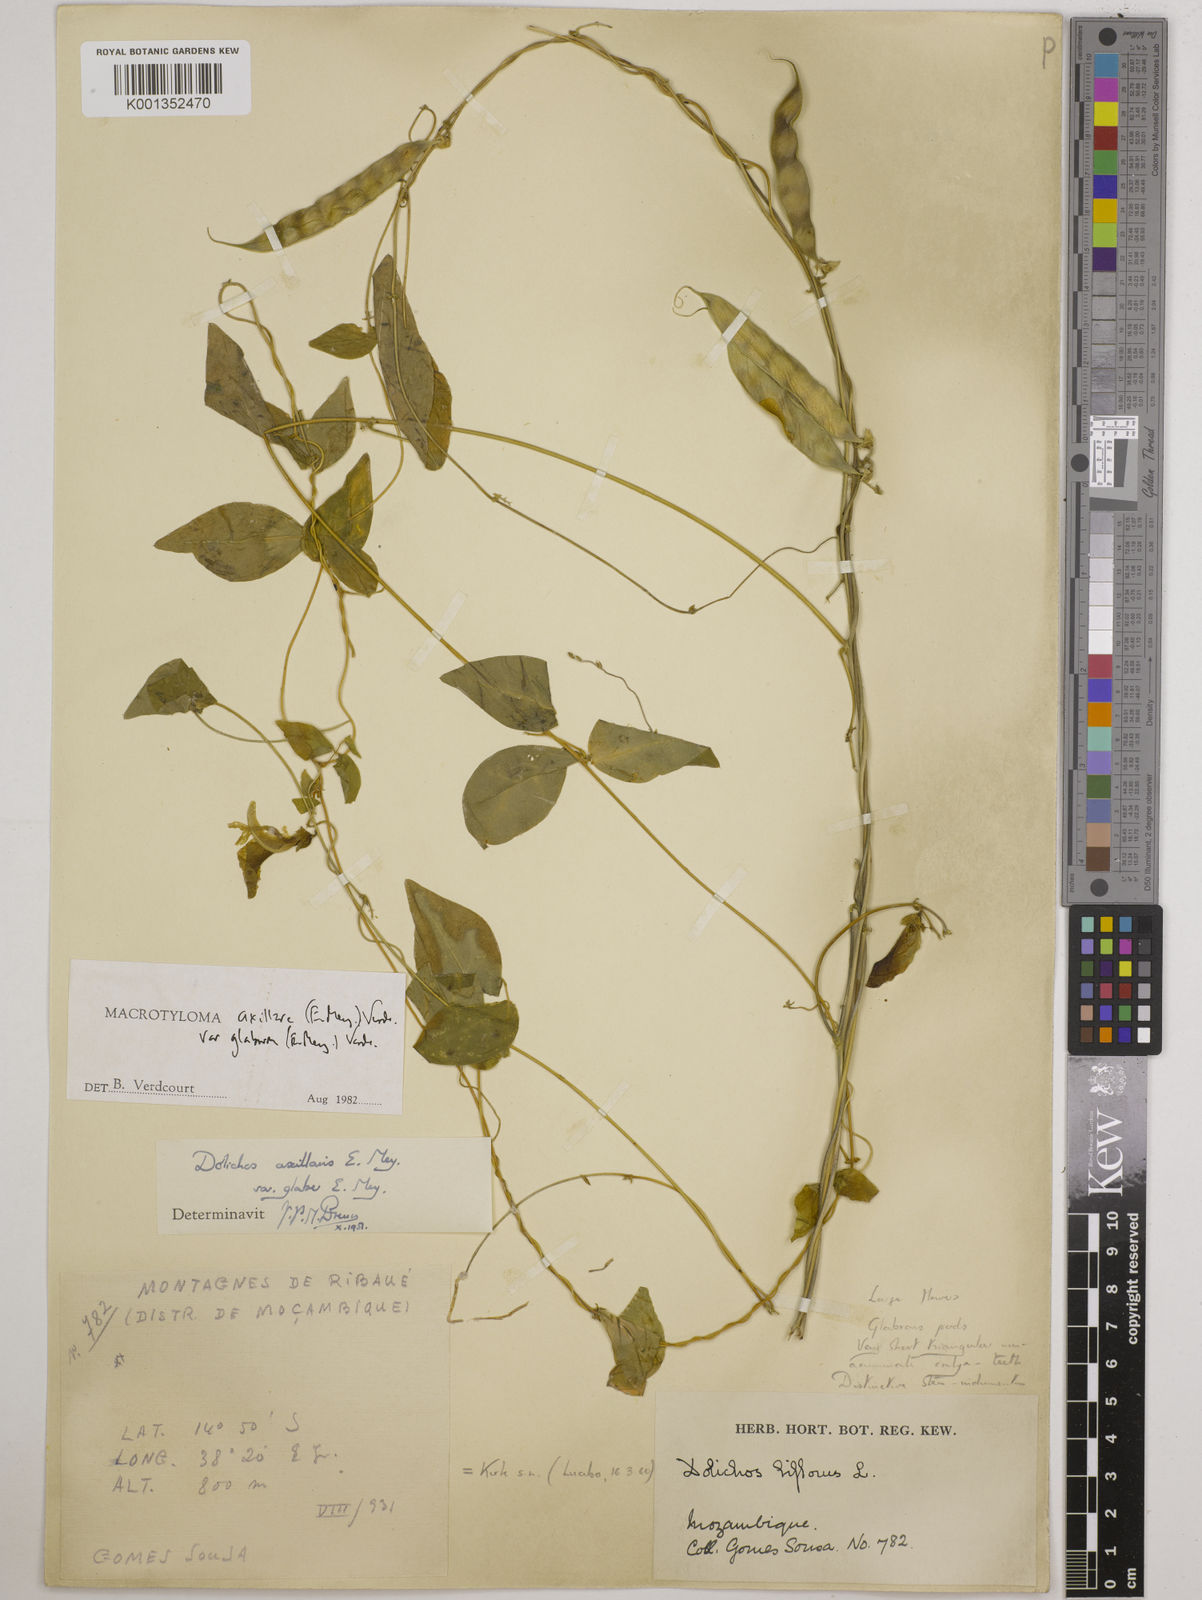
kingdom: Plantae
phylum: Tracheophyta
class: Magnoliopsida
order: Fabales
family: Fabaceae
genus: Macrotyloma
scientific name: Macrotyloma
